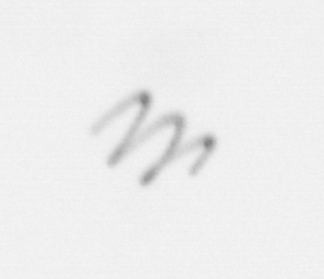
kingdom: Chromista
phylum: Ochrophyta
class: Bacillariophyceae
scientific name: Bacillariophyceae
